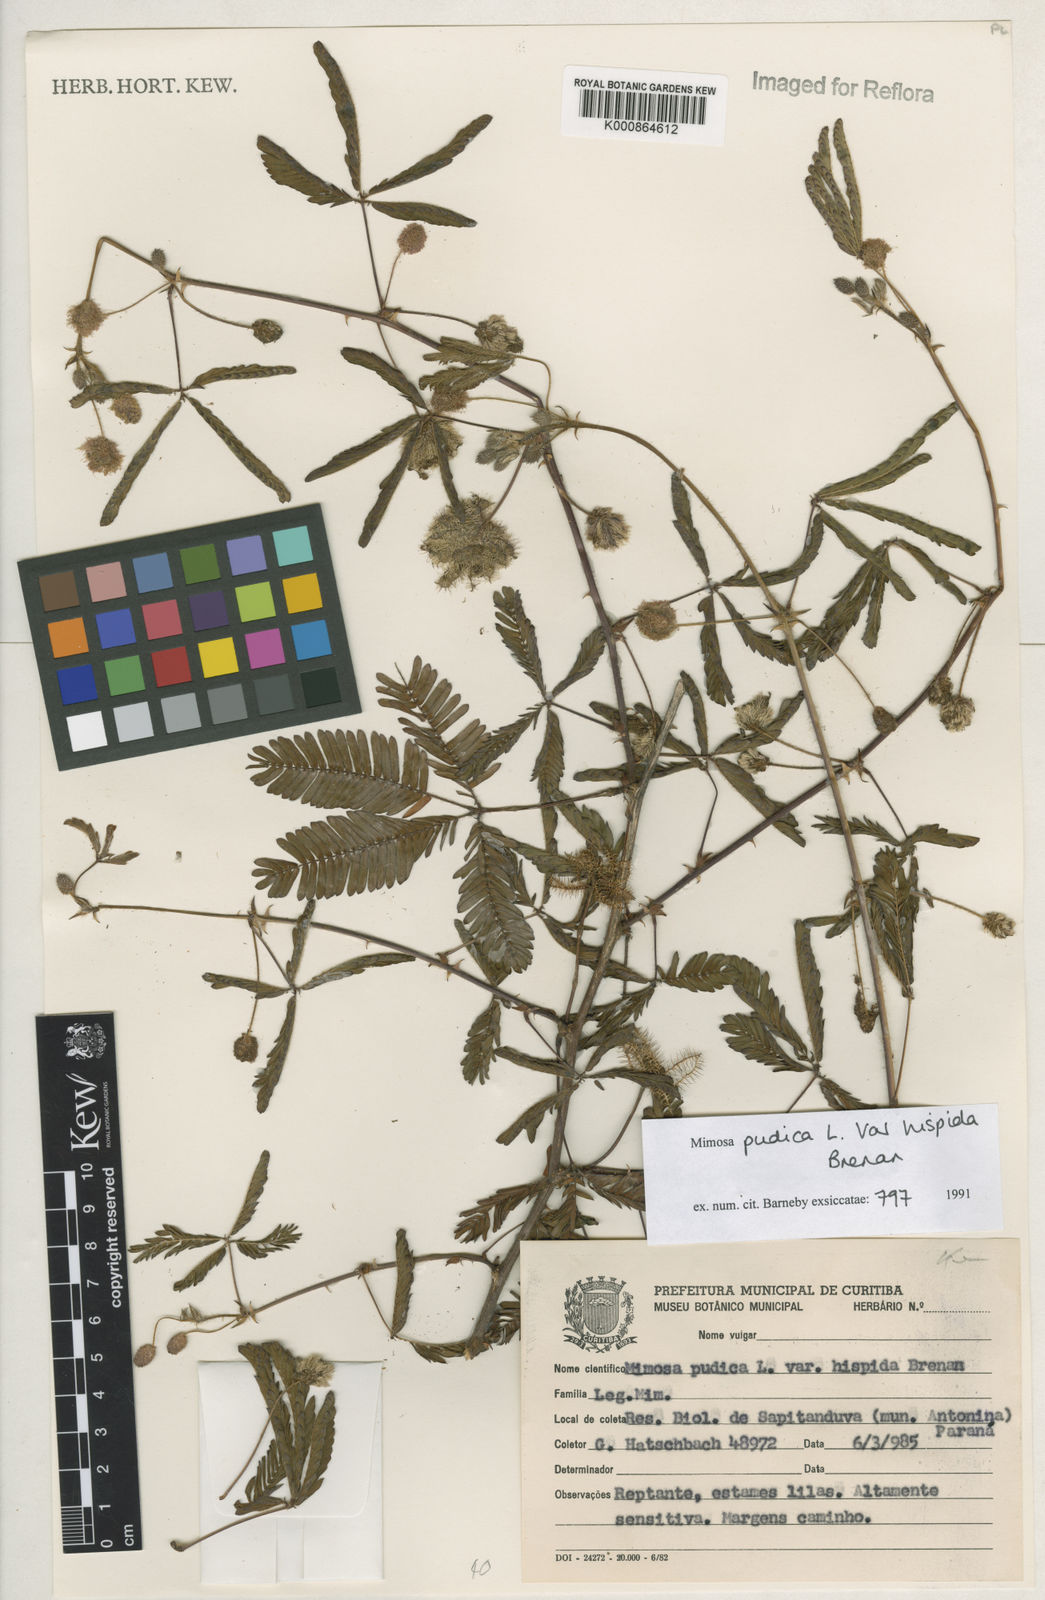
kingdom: Plantae
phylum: Tracheophyta
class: Magnoliopsida
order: Fabales
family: Fabaceae
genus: Mimosa
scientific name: Mimosa pudica
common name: Sensitive plant
